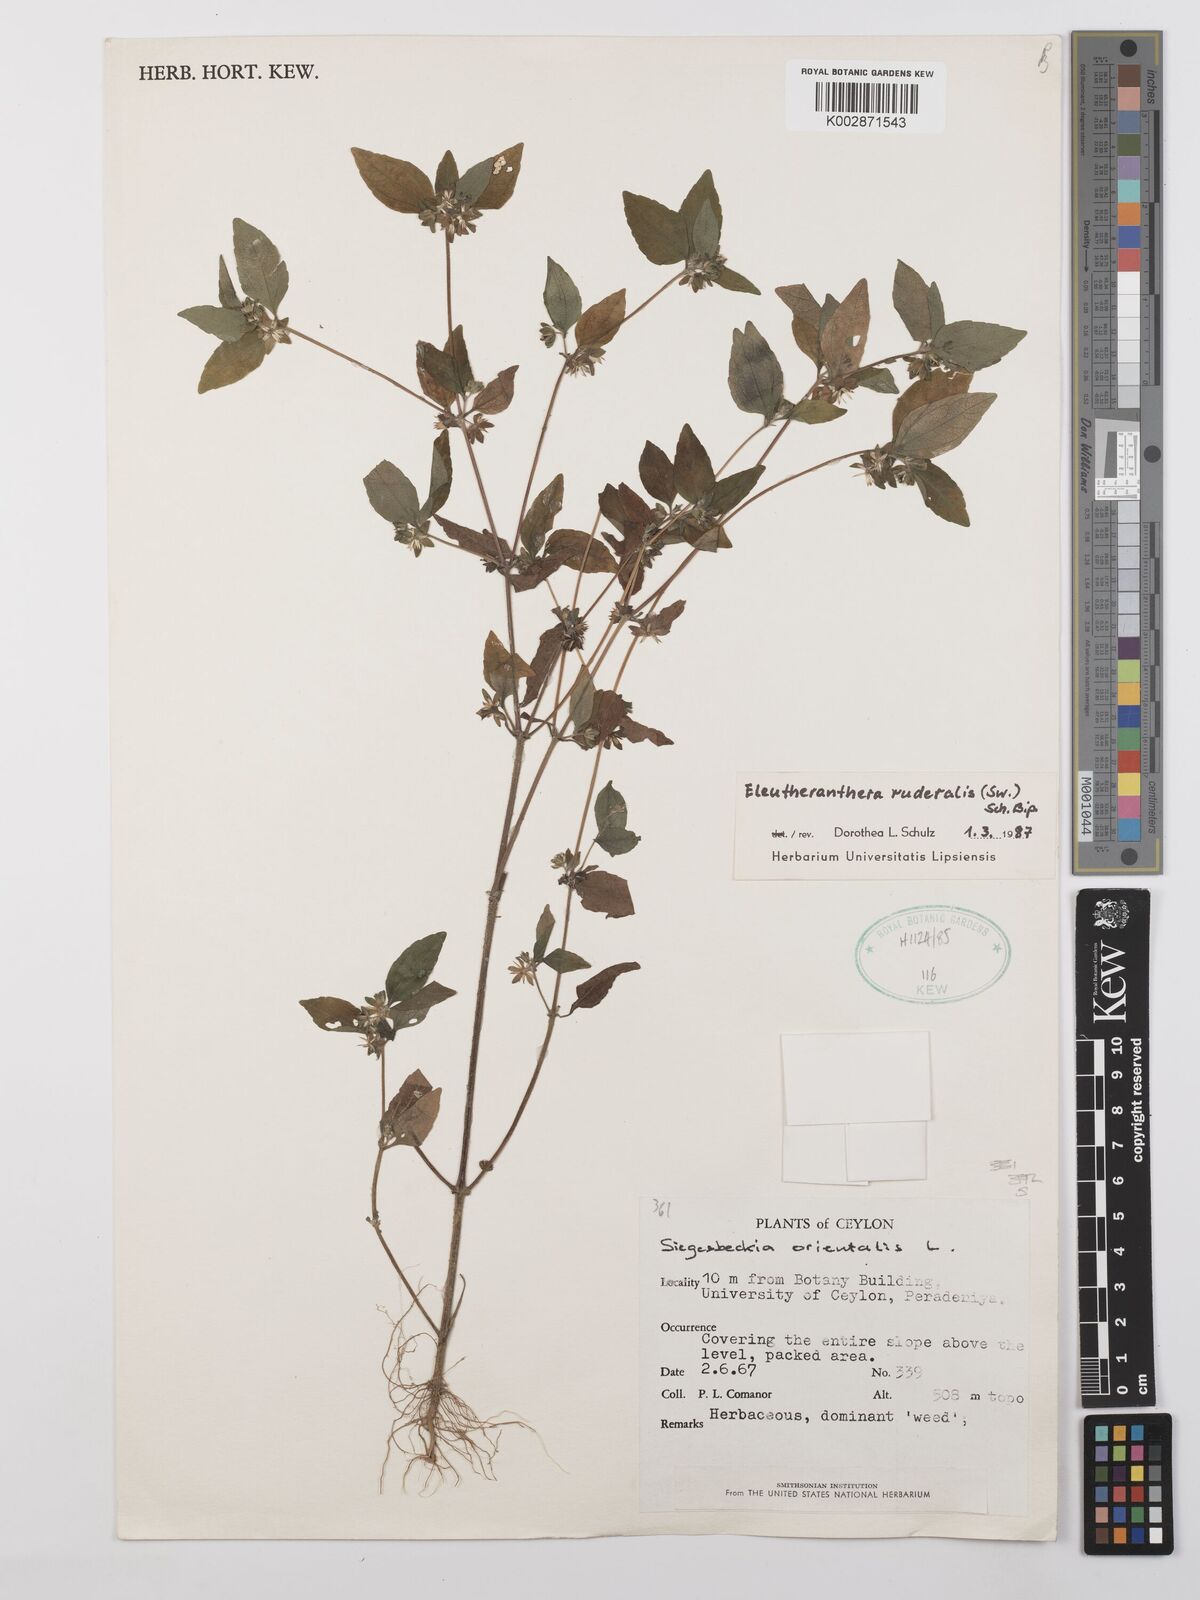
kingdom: Plantae
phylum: Tracheophyta
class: Magnoliopsida
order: Asterales
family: Asteraceae
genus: Eleutheranthera
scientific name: Eleutheranthera ruderalis
